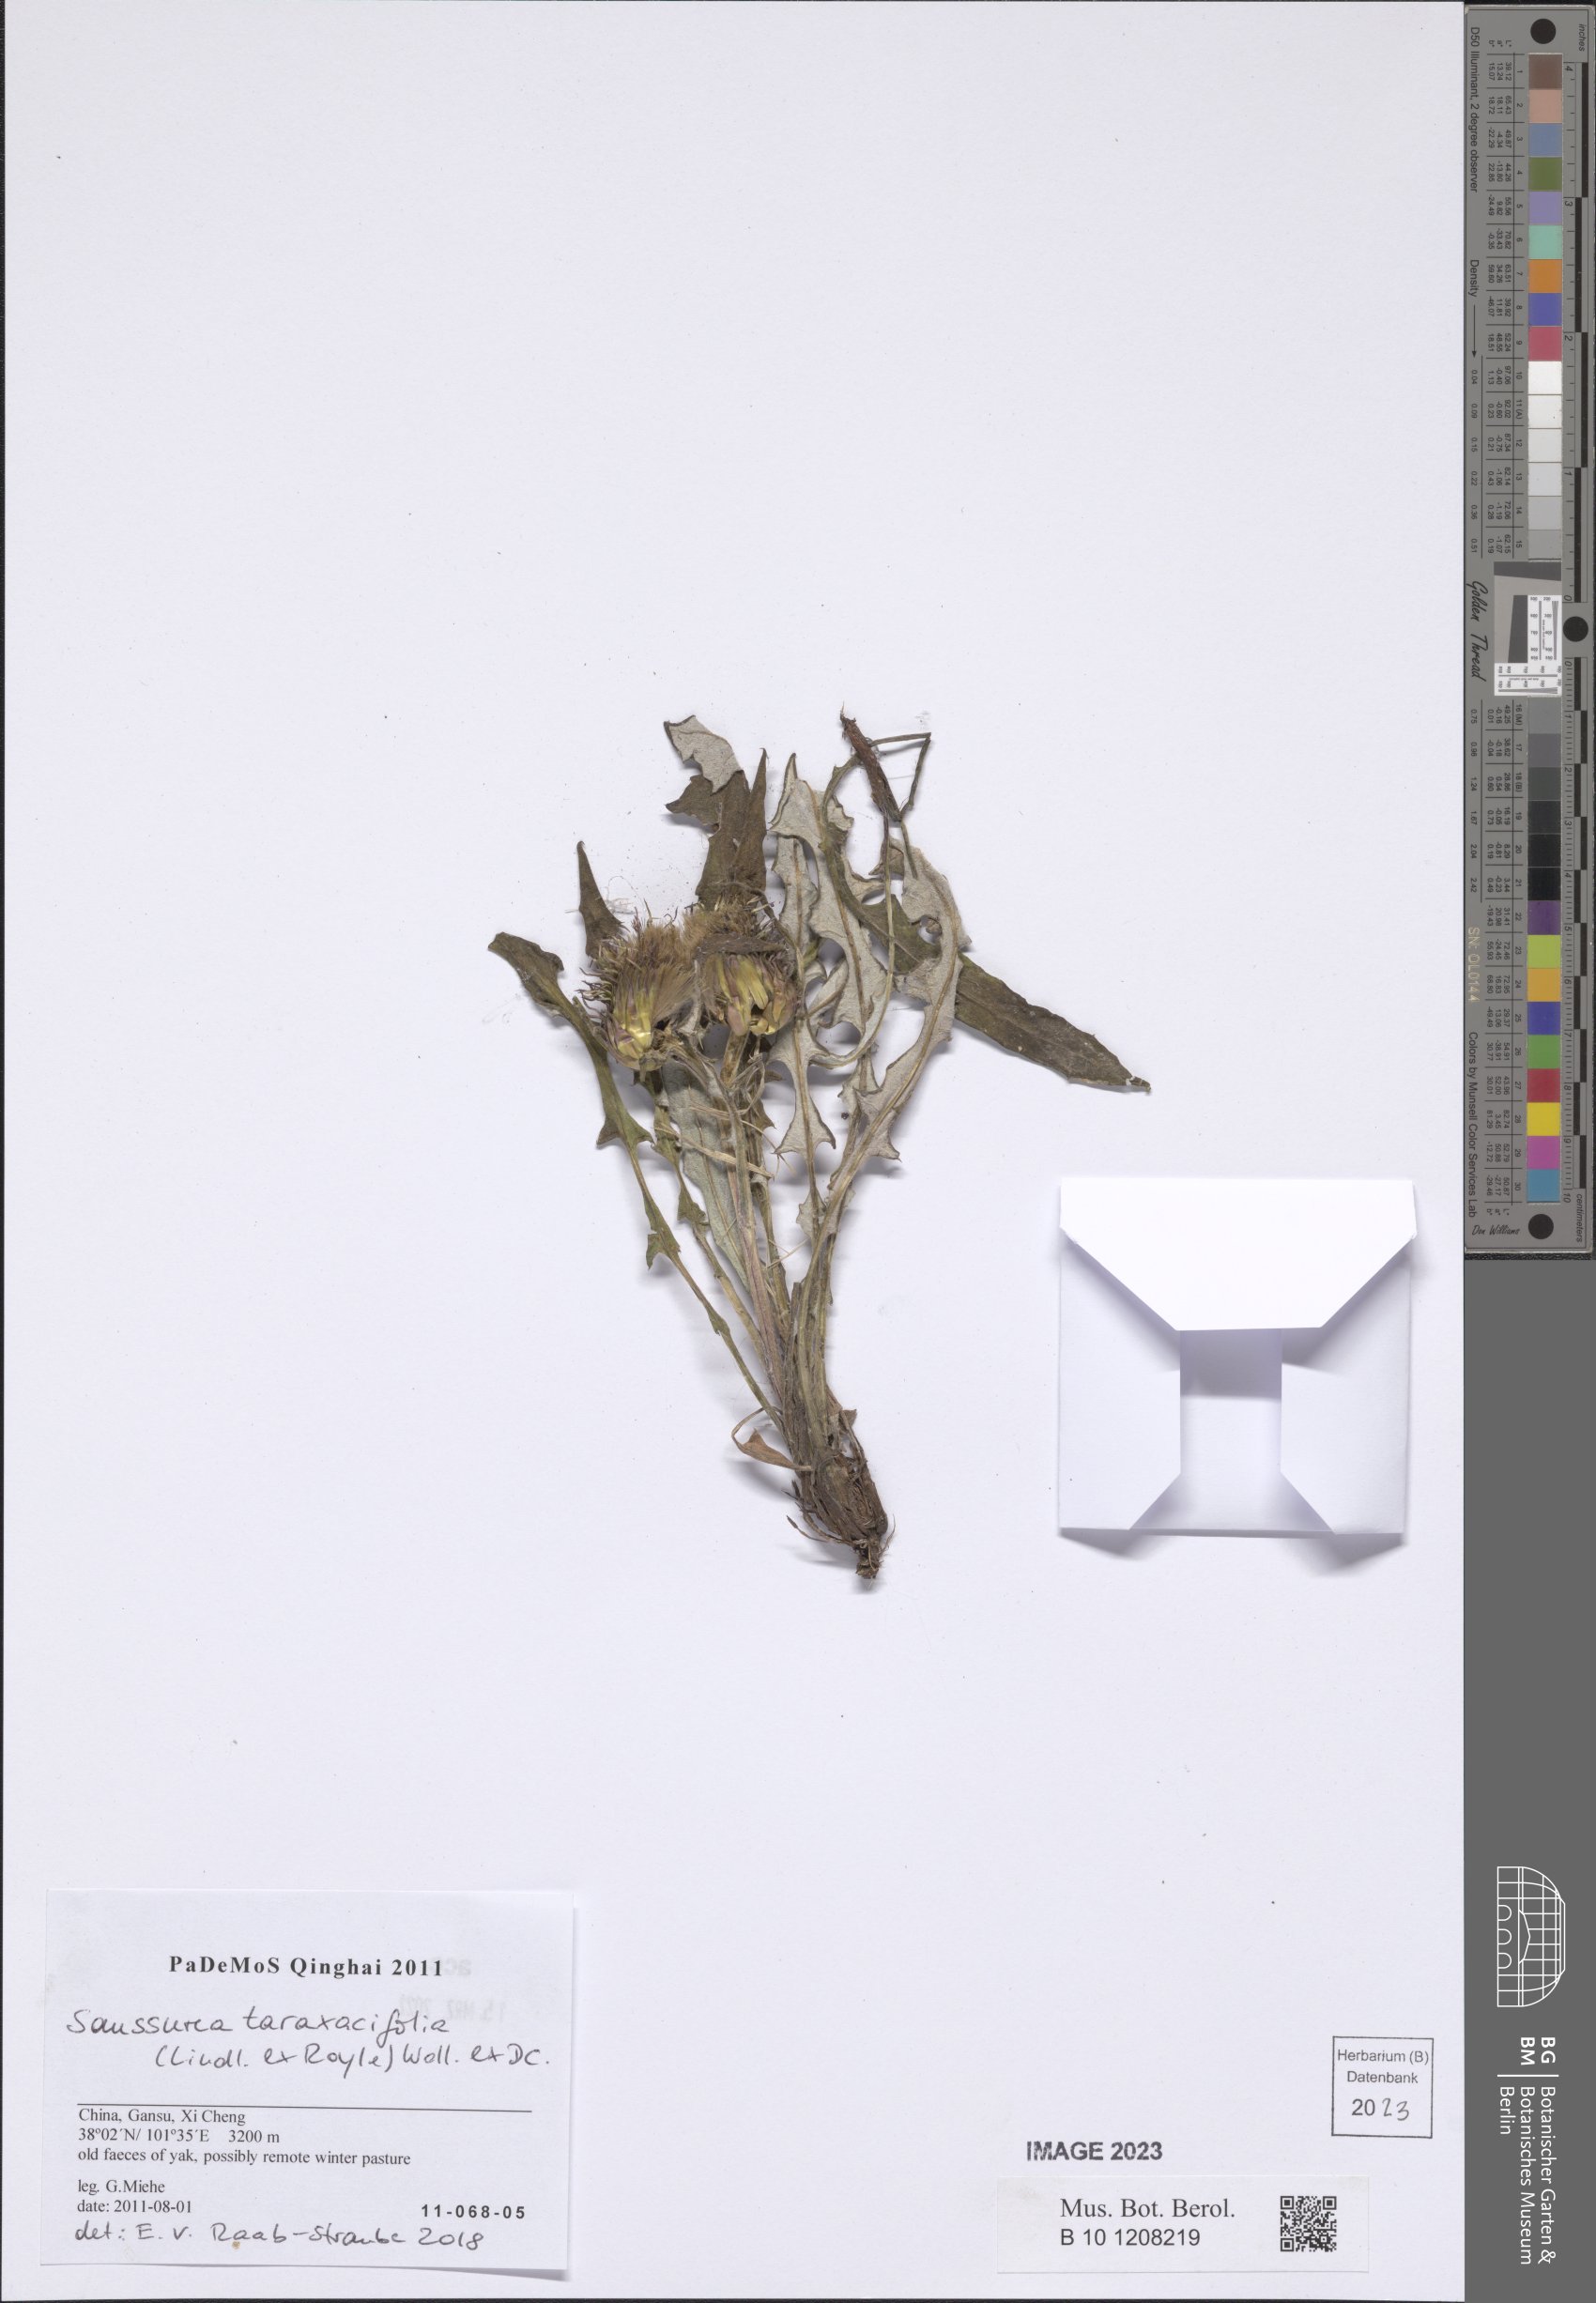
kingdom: Plantae
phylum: Tracheophyta
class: Magnoliopsida
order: Asterales
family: Asteraceae
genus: Saussurea
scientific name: Saussurea taraxacifolia
